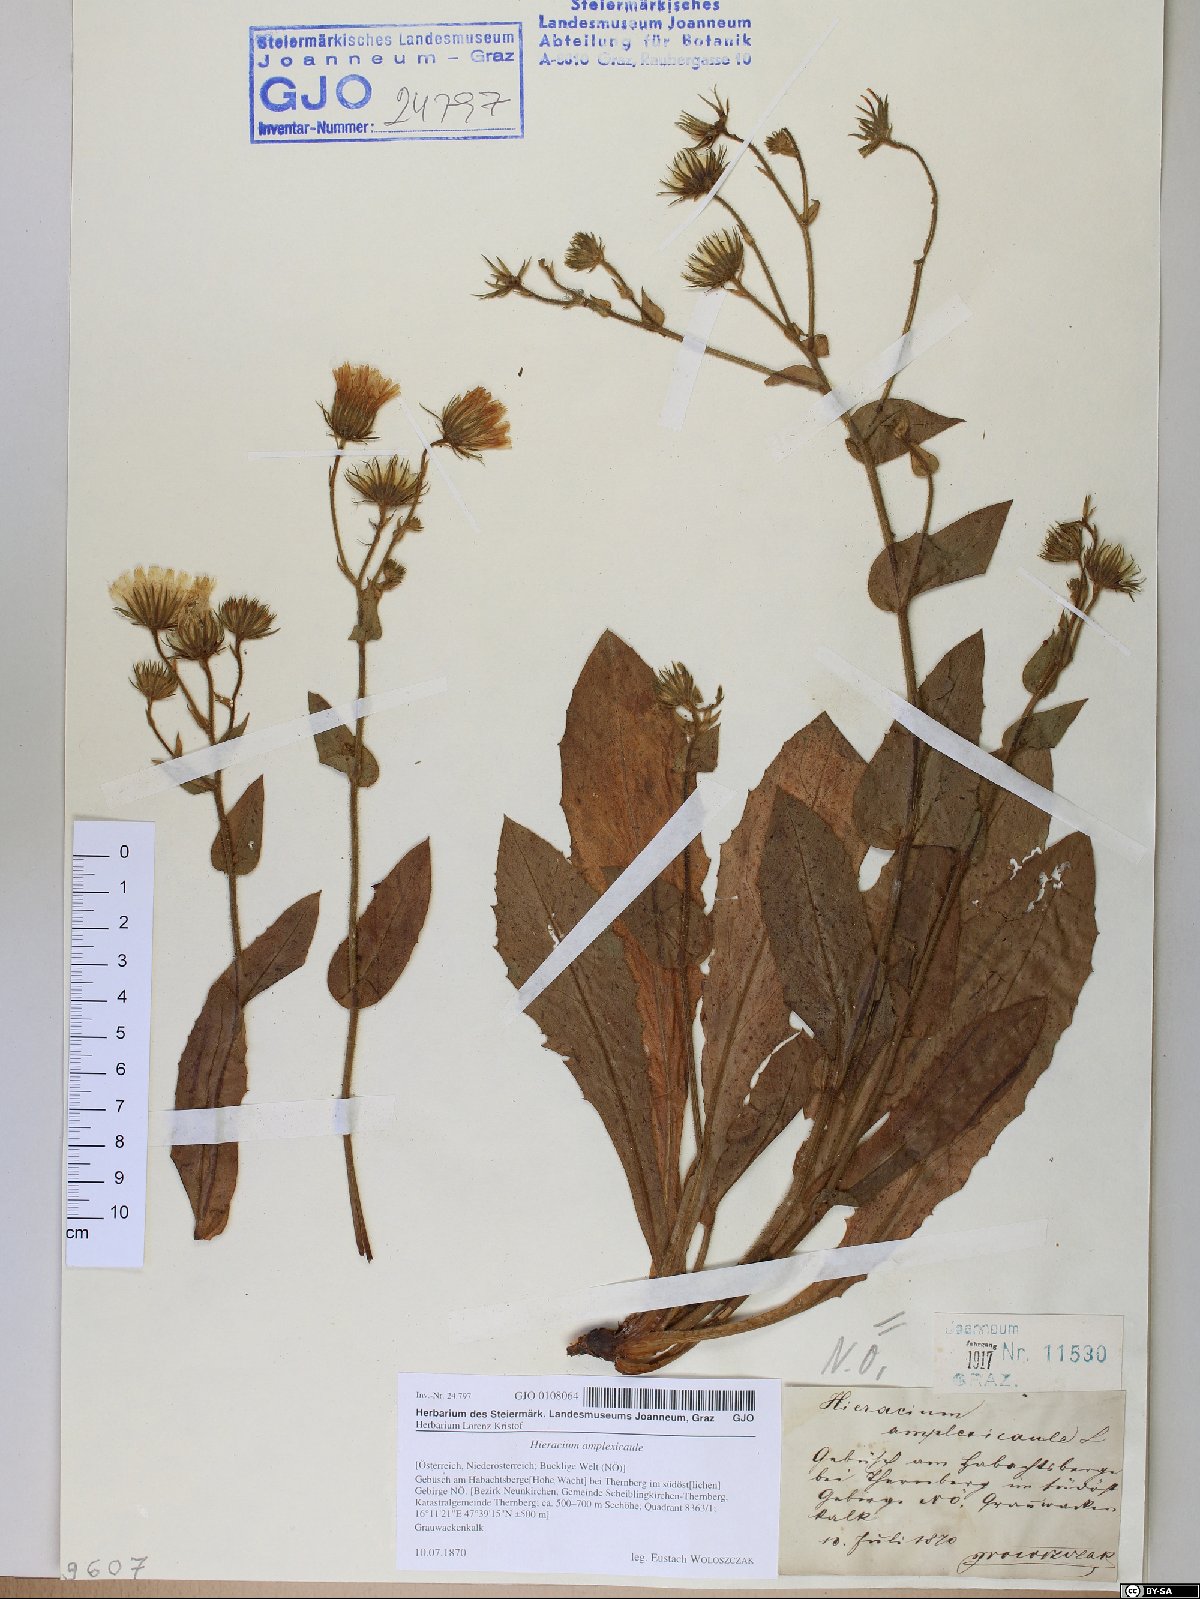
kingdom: Plantae
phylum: Tracheophyta
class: Magnoliopsida
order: Asterales
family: Asteraceae
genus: Hieracium
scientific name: Hieracium amplexicaule
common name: Sticky hawkweed
